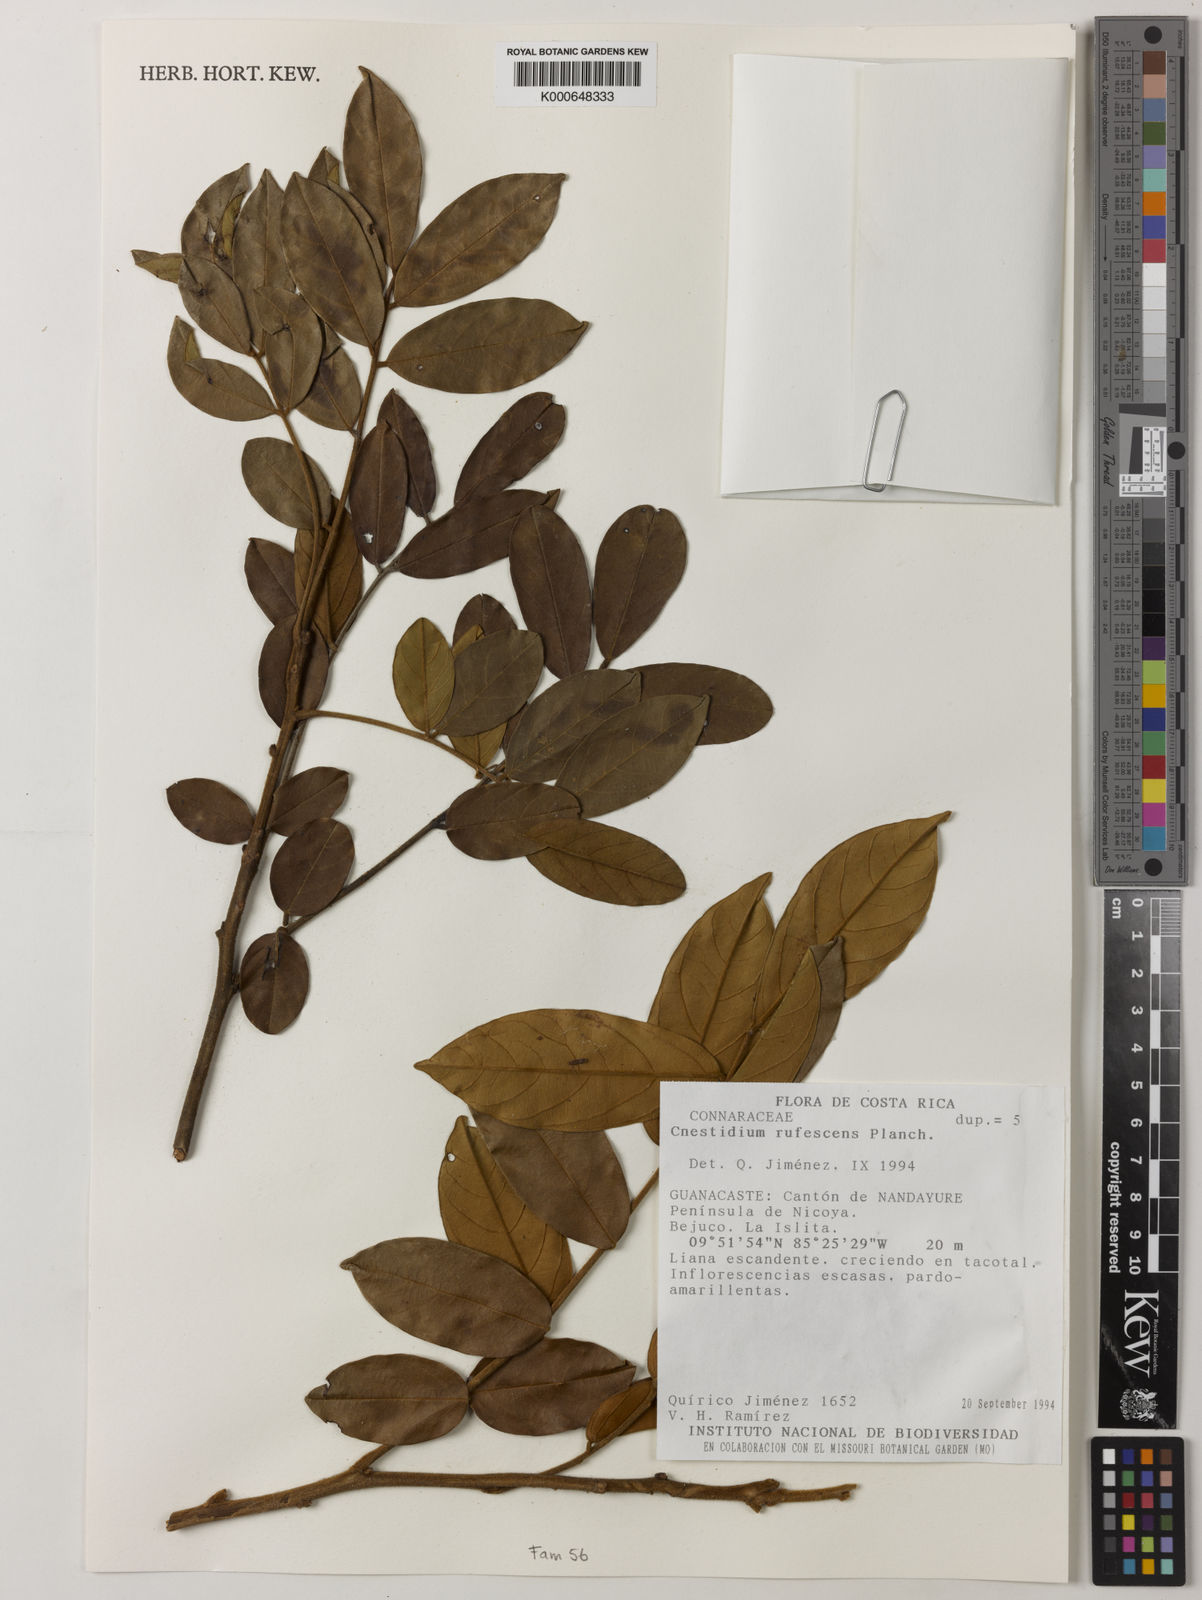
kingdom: Plantae
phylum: Tracheophyta
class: Magnoliopsida
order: Oxalidales
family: Connaraceae
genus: Cnestidium
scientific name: Cnestidium rufescens
